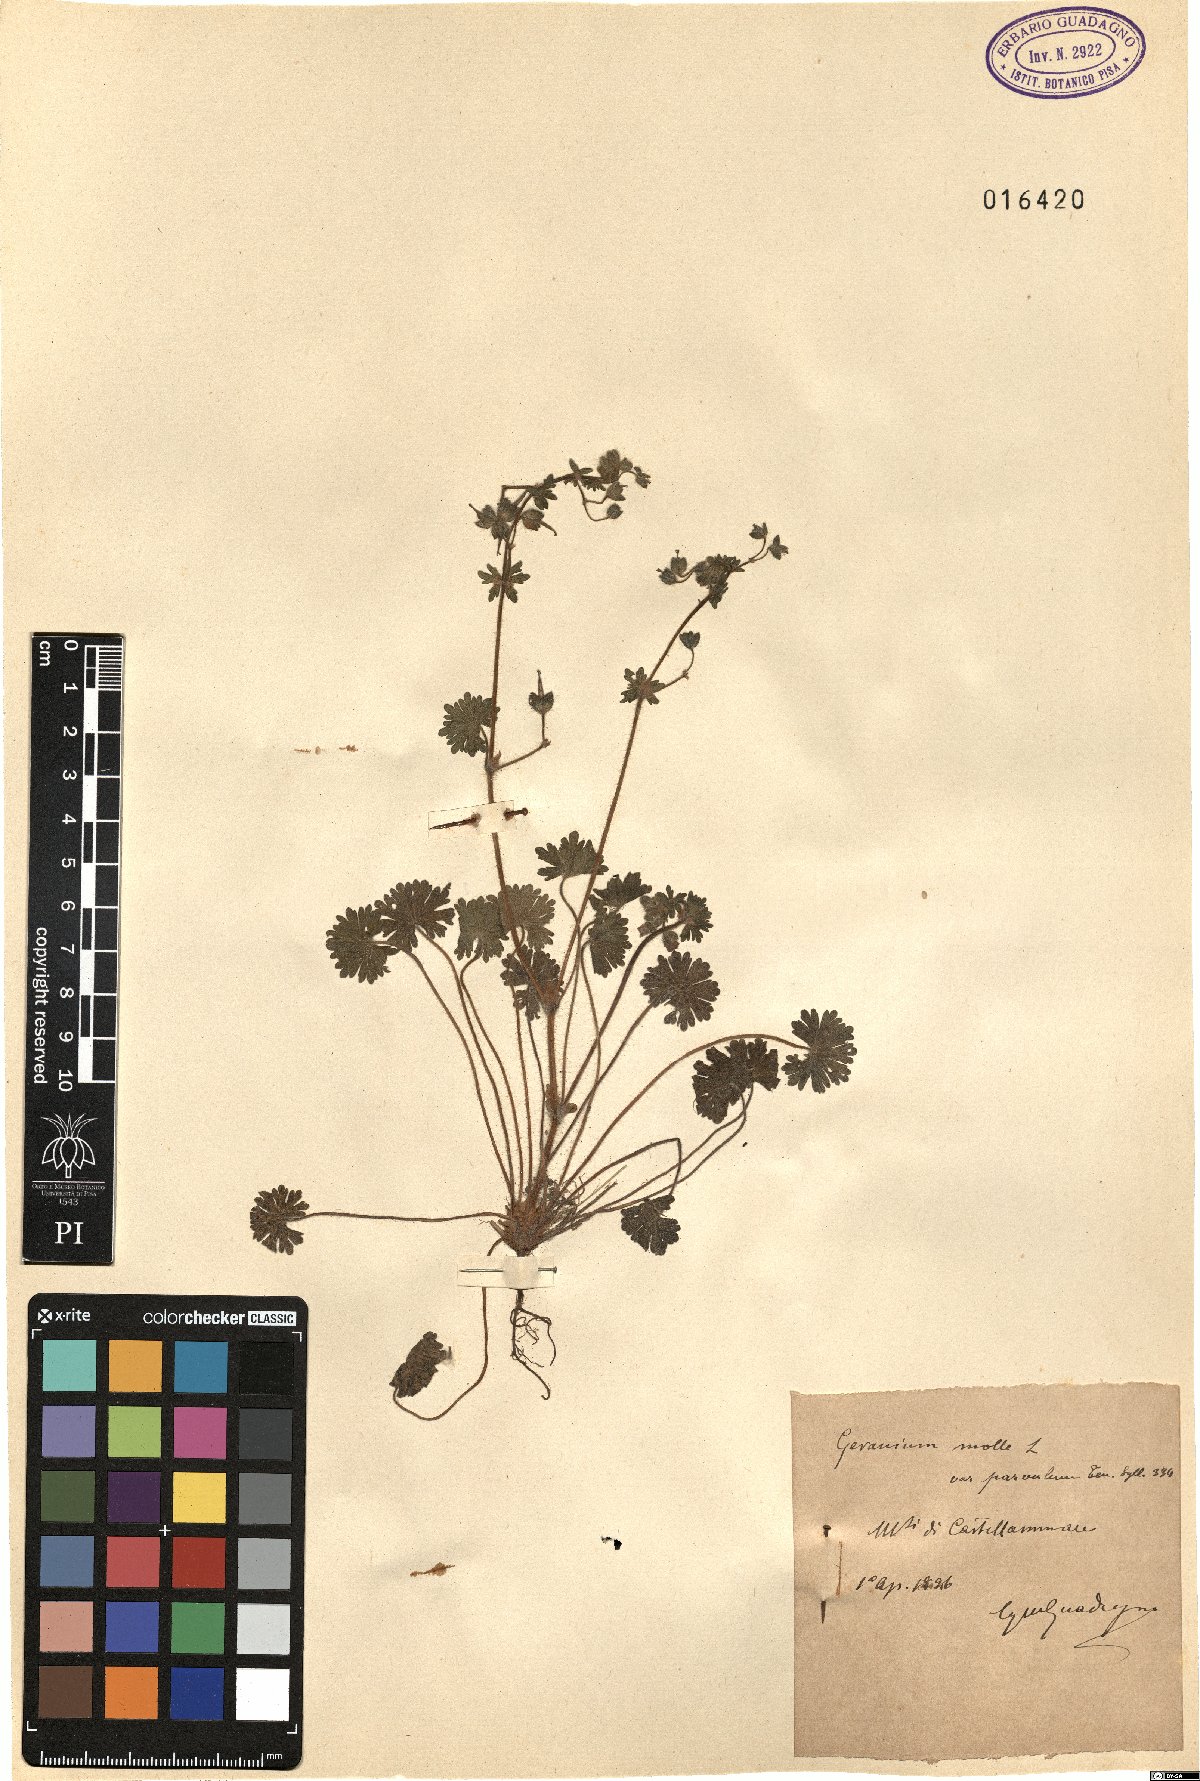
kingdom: Plantae
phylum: Tracheophyta
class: Magnoliopsida
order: Geraniales
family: Geraniaceae
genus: Geranium
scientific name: Geranium molle
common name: Dove's-foot crane's-bill
